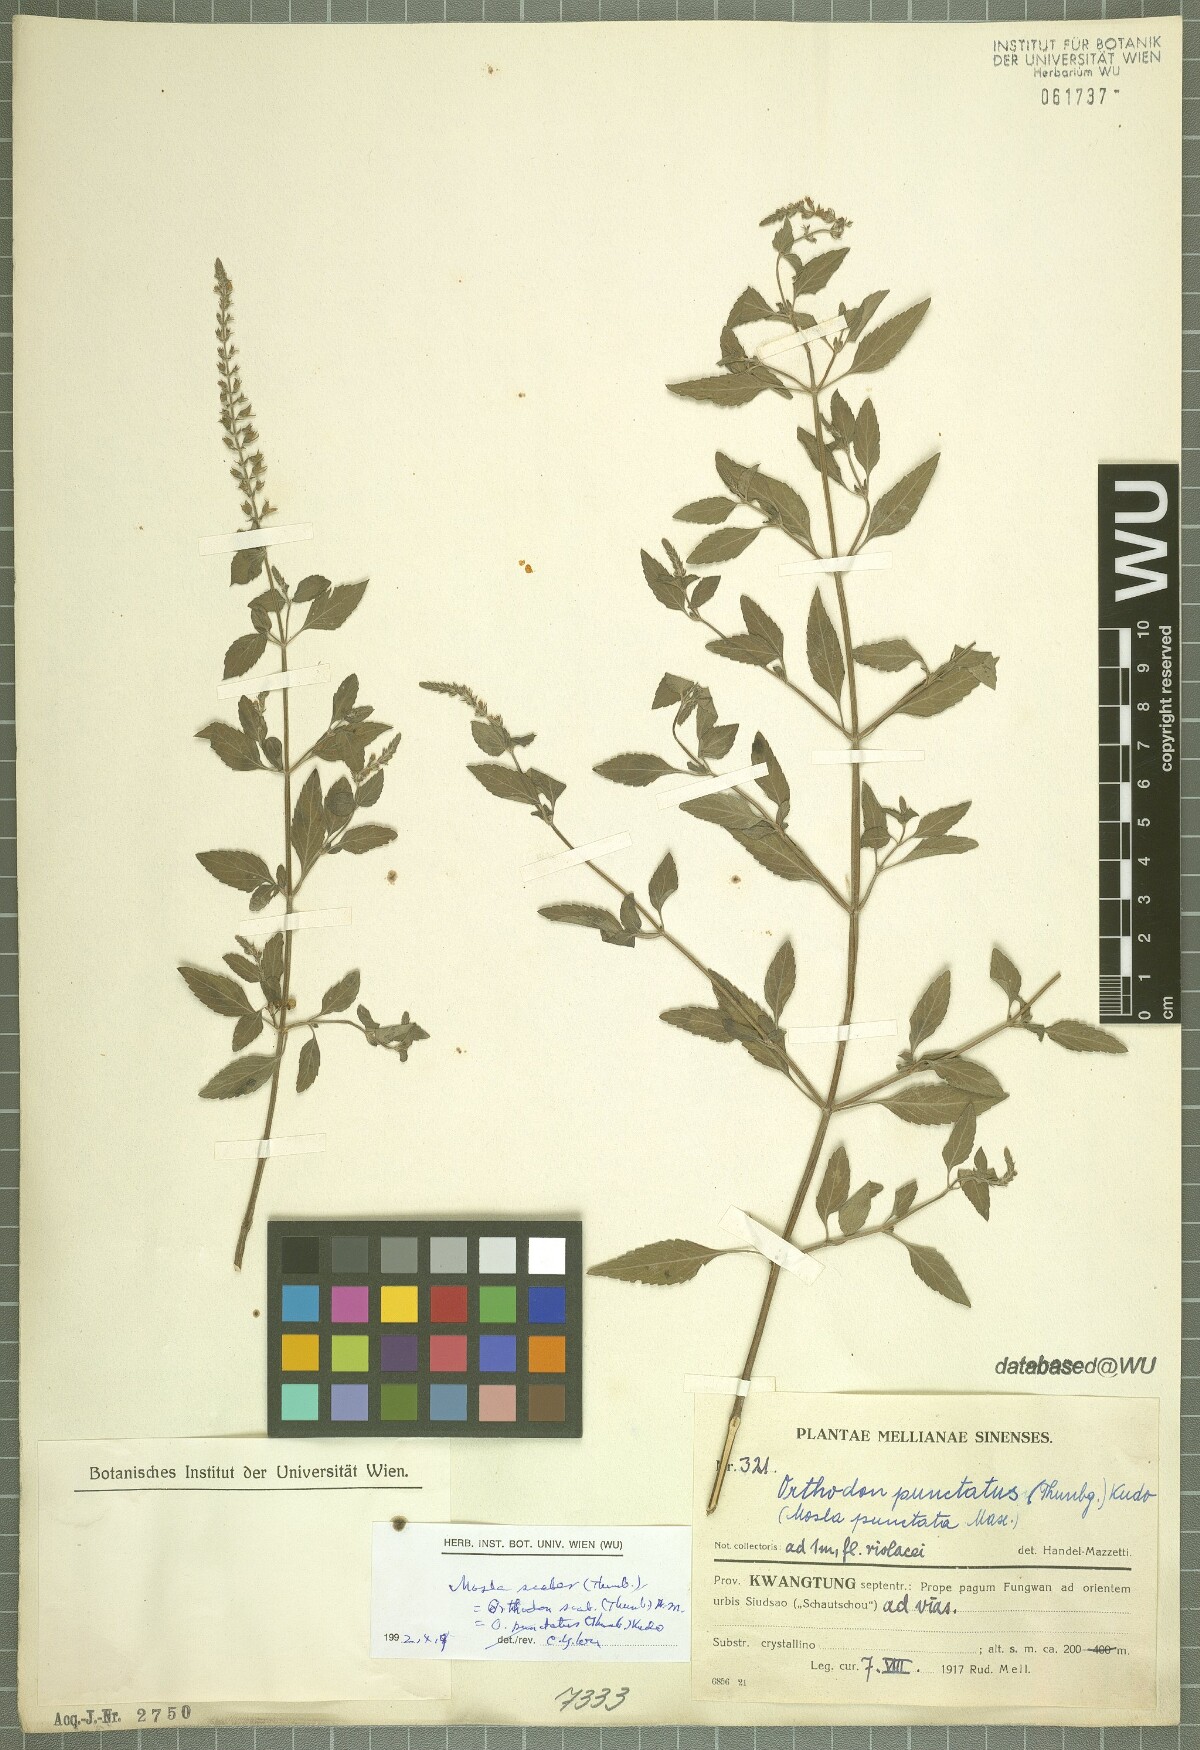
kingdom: Plantae
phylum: Tracheophyta
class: Magnoliopsida
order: Lamiales
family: Lamiaceae
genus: Mosla
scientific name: Mosla scabra
